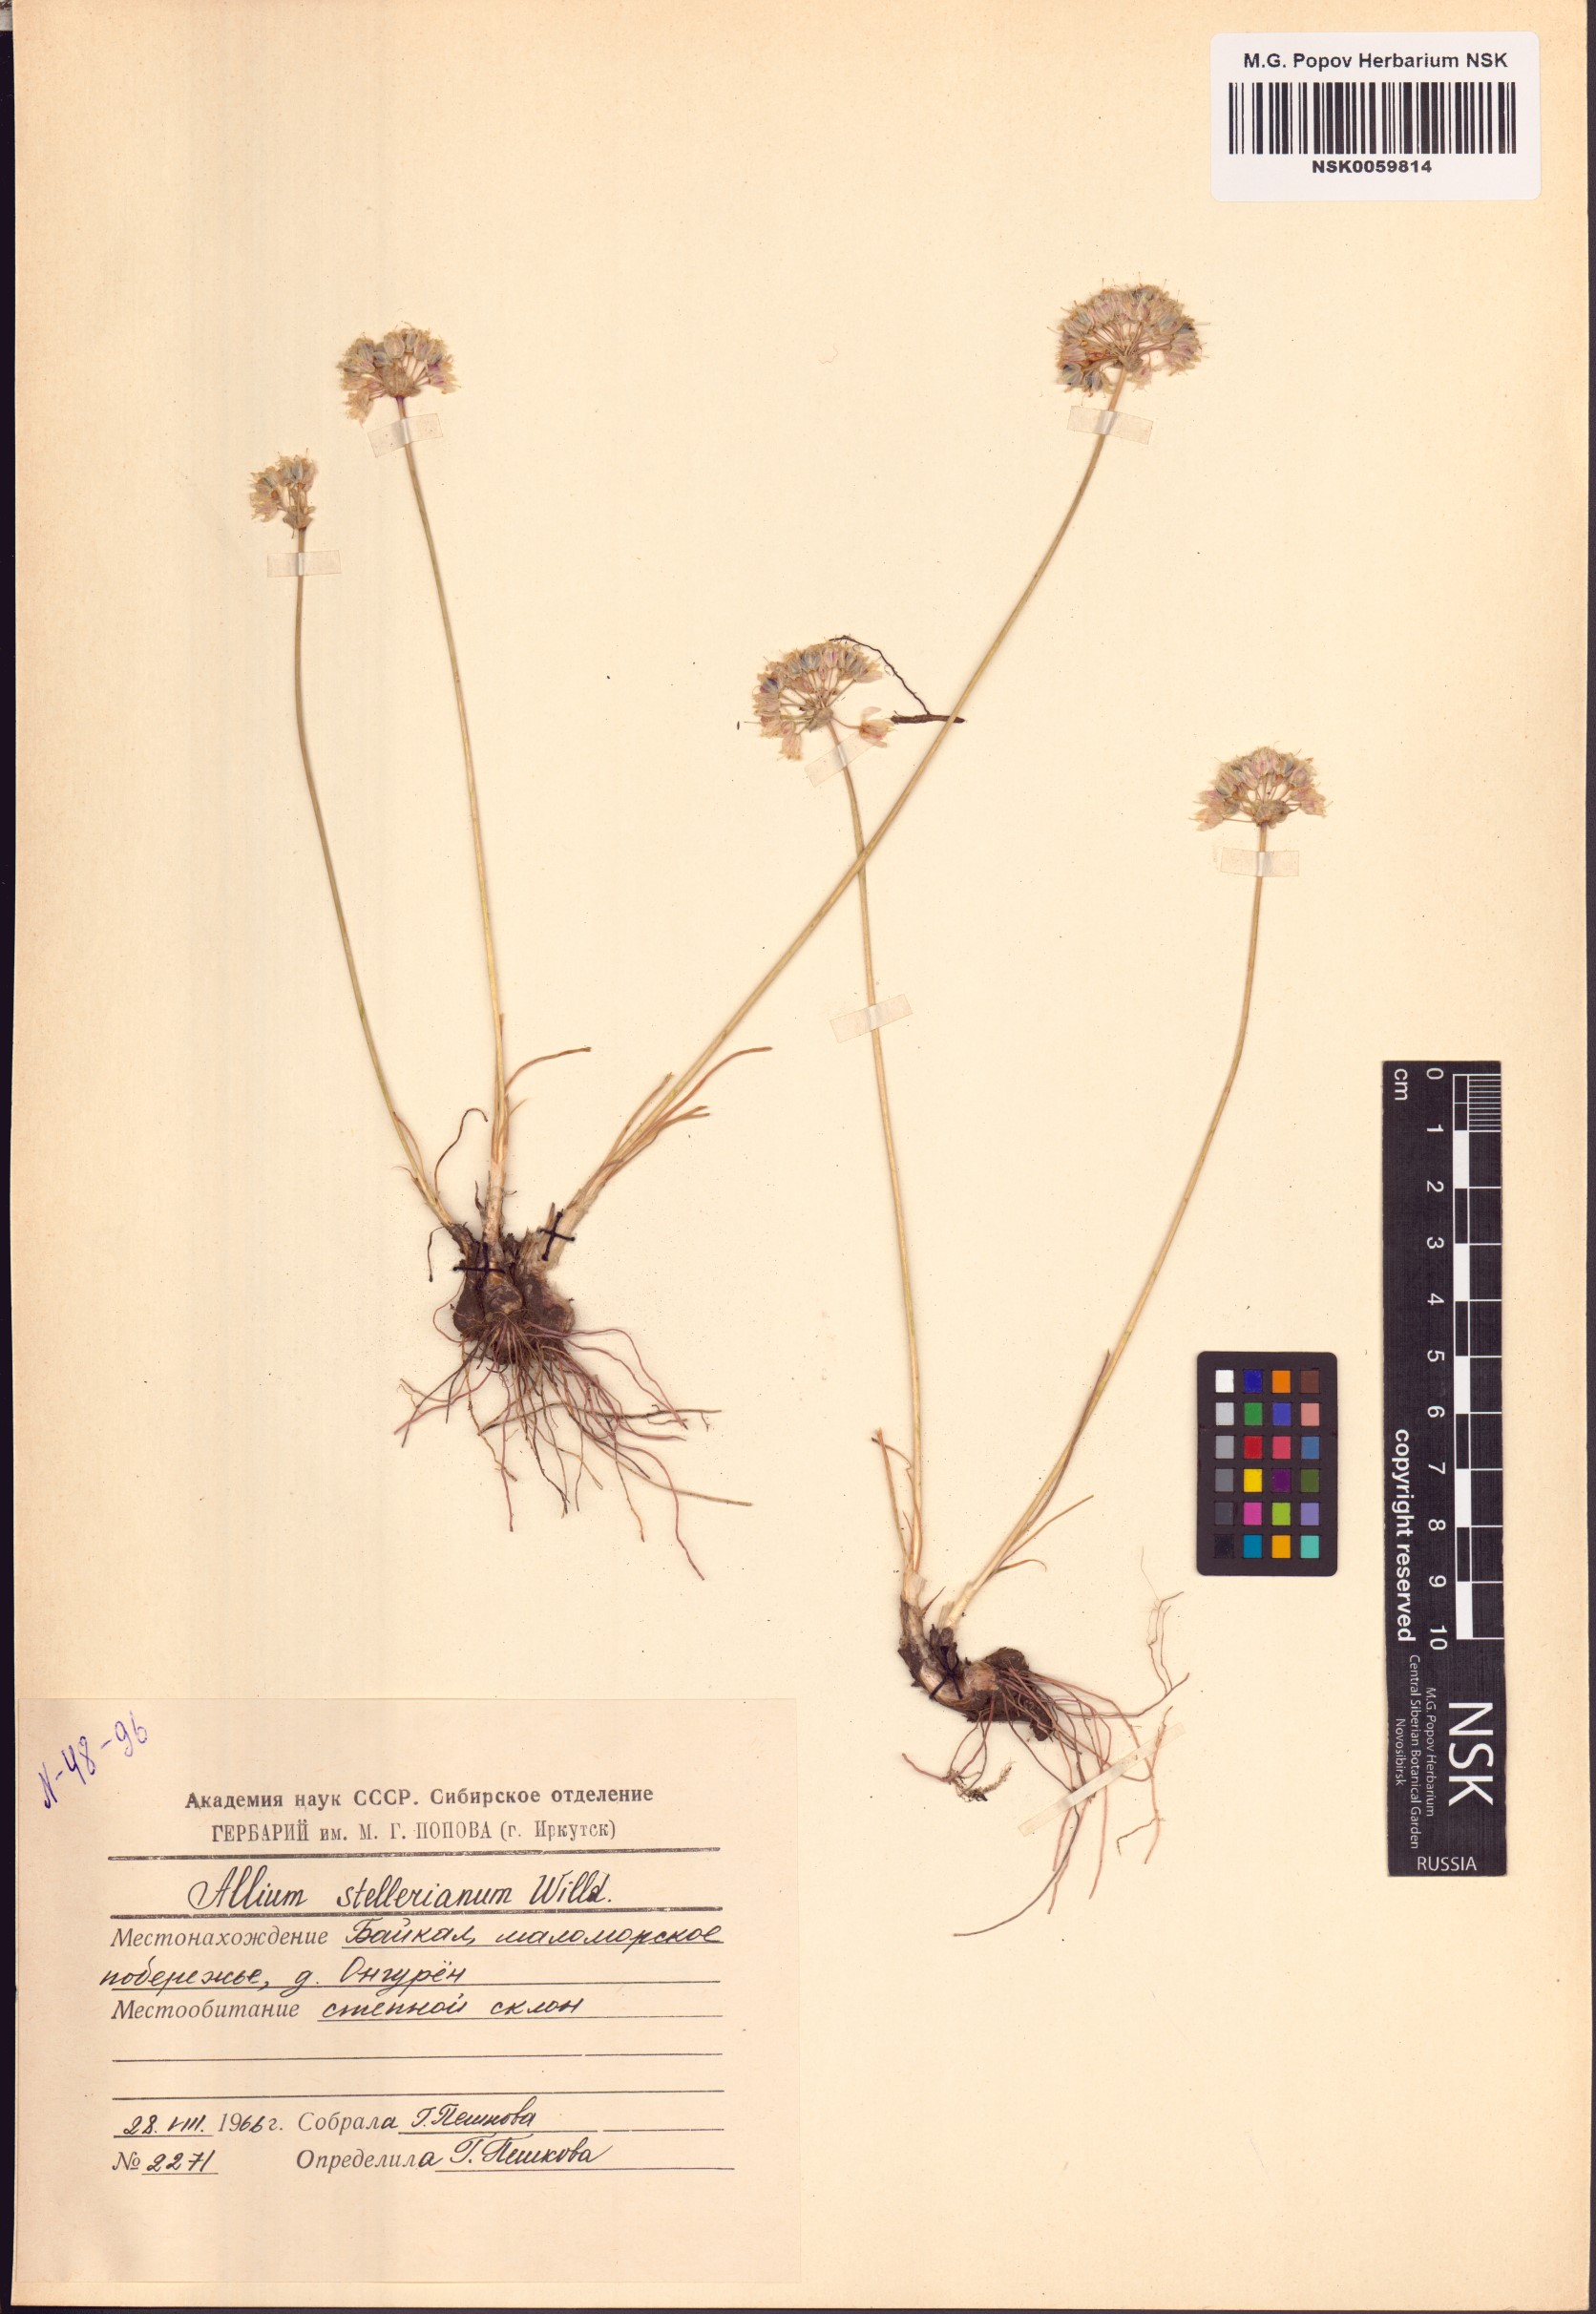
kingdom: Plantae
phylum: Tracheophyta
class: Liliopsida
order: Asparagales
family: Amaryllidaceae
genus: Allium
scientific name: Allium stellerianum
